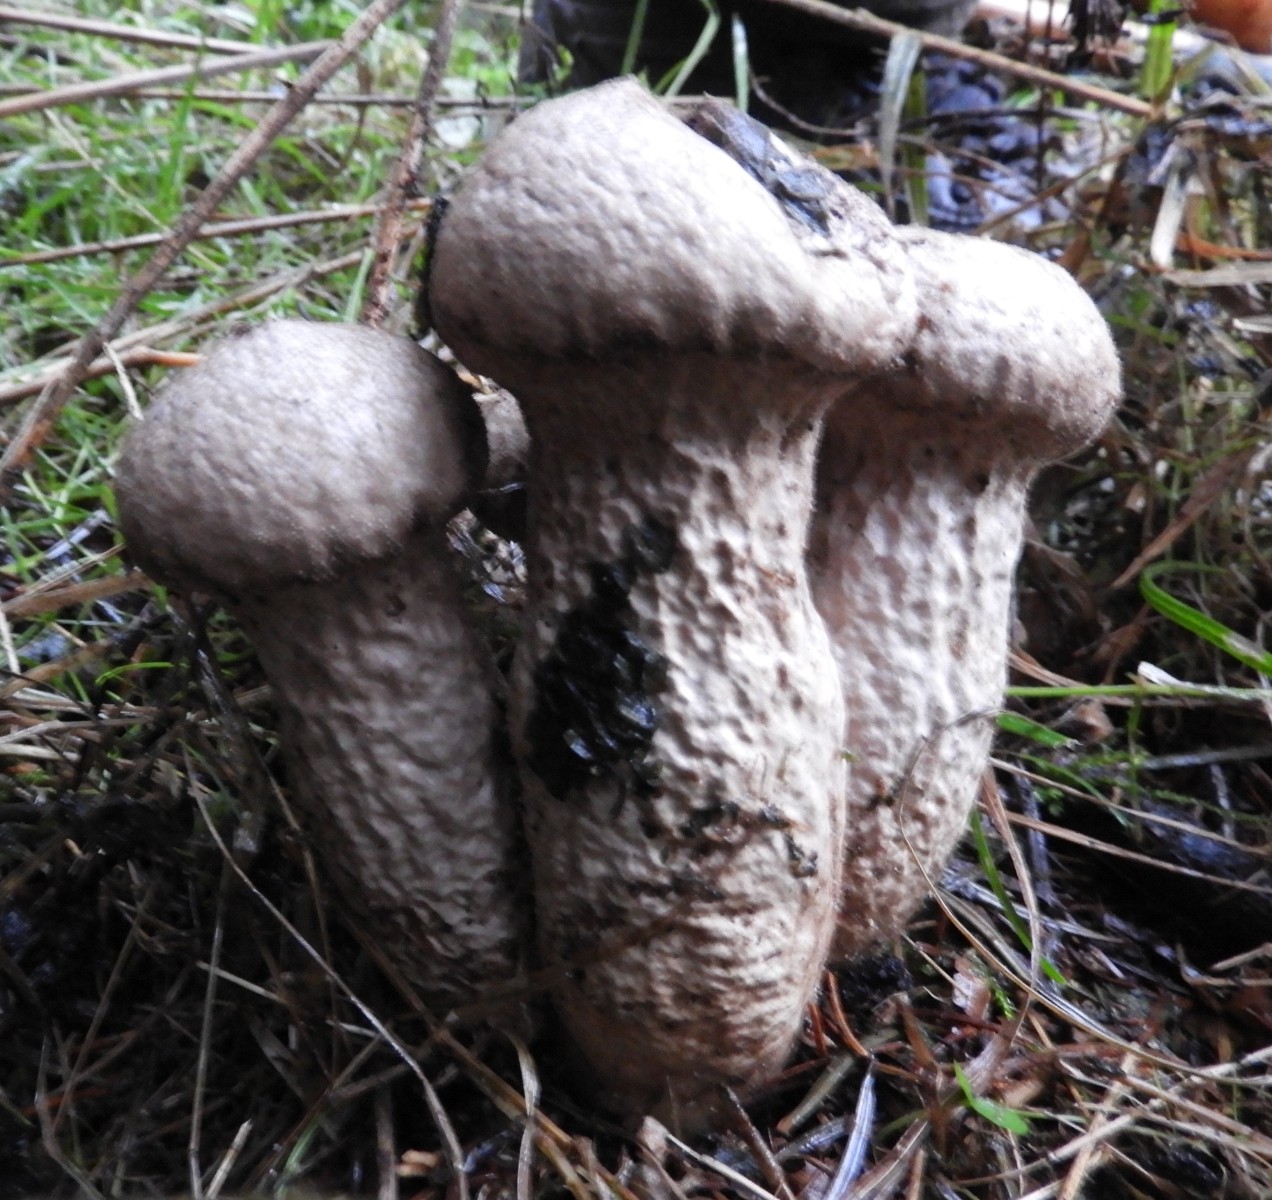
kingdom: Fungi
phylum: Basidiomycota
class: Agaricomycetes
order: Agaricales
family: Agaricaceae
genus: Lycoperdon
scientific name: Lycoperdon
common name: støvbold
